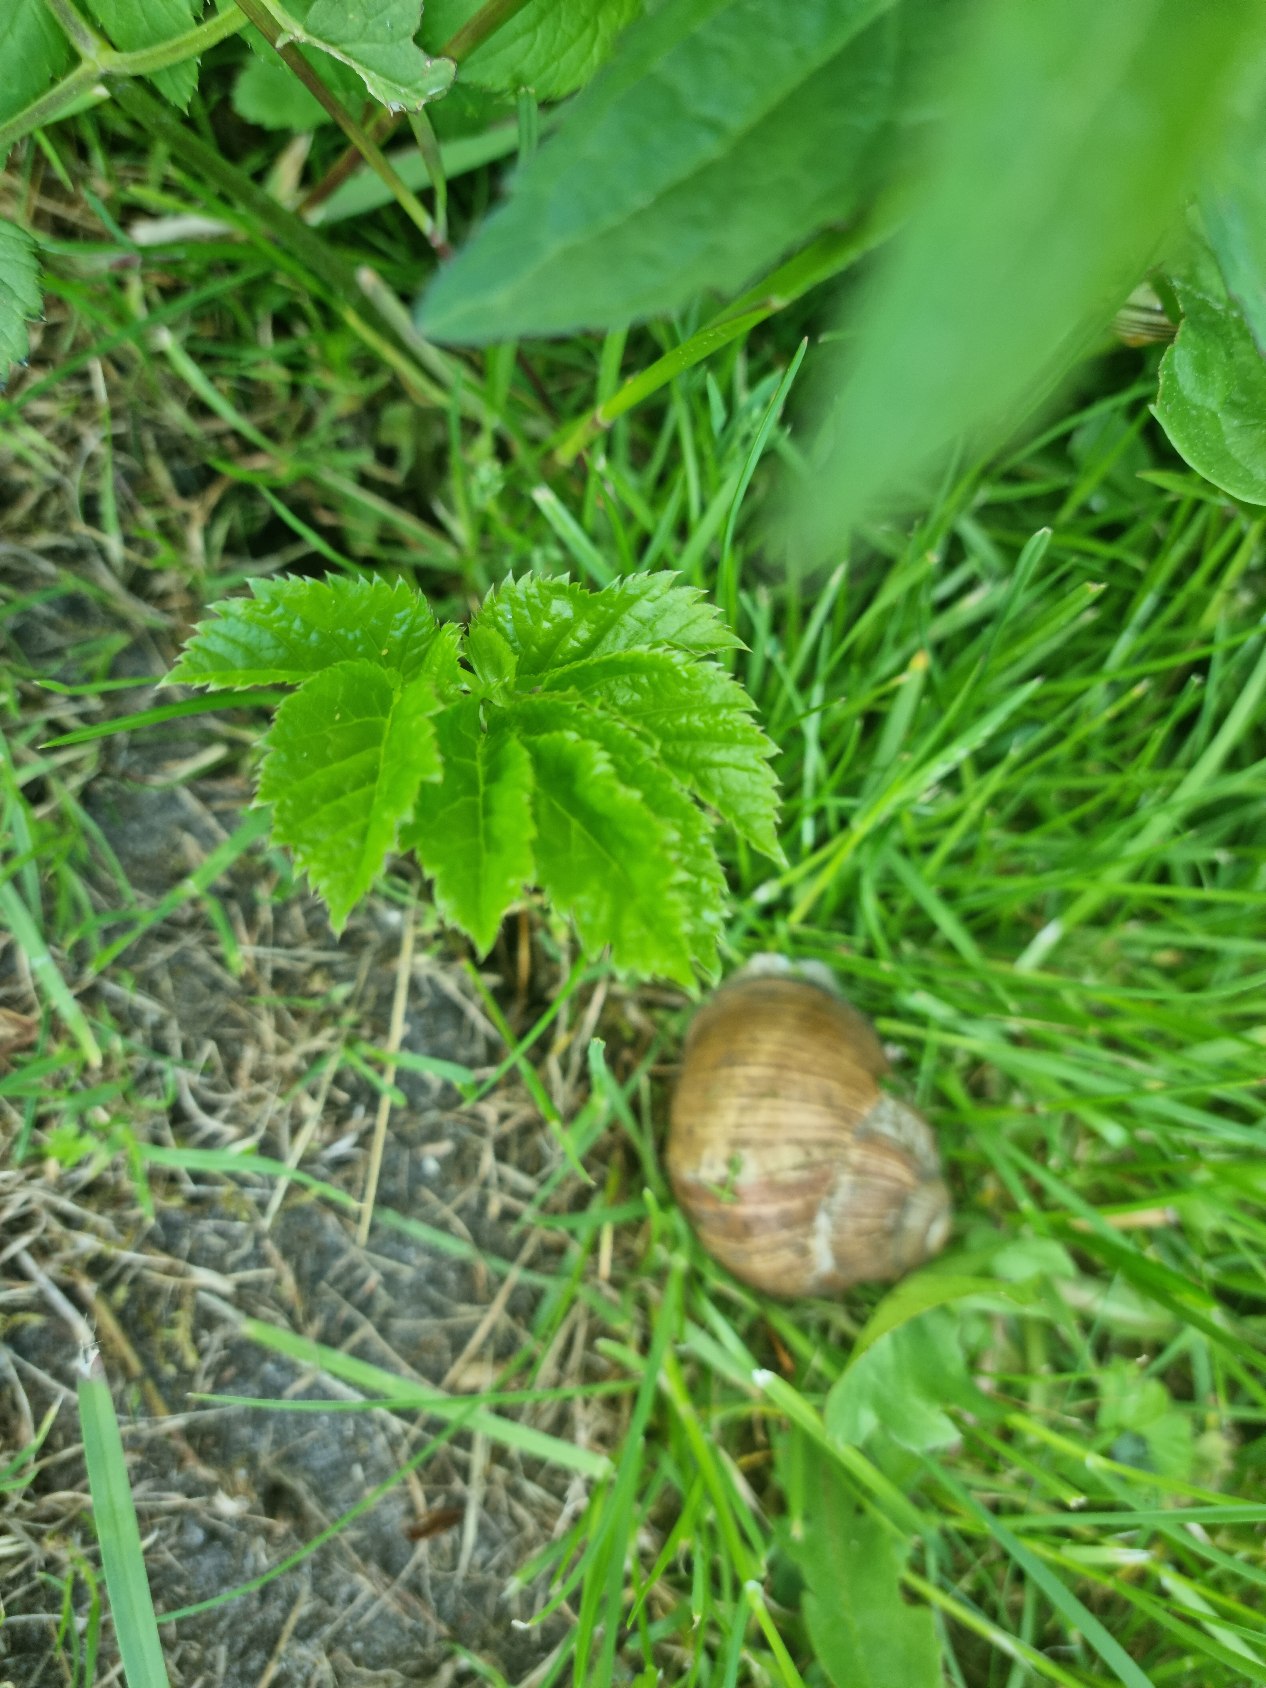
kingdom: Animalia
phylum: Mollusca
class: Gastropoda
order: Stylommatophora
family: Helicidae
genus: Helix
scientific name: Helix pomatia
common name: Vinbjergsnegl
